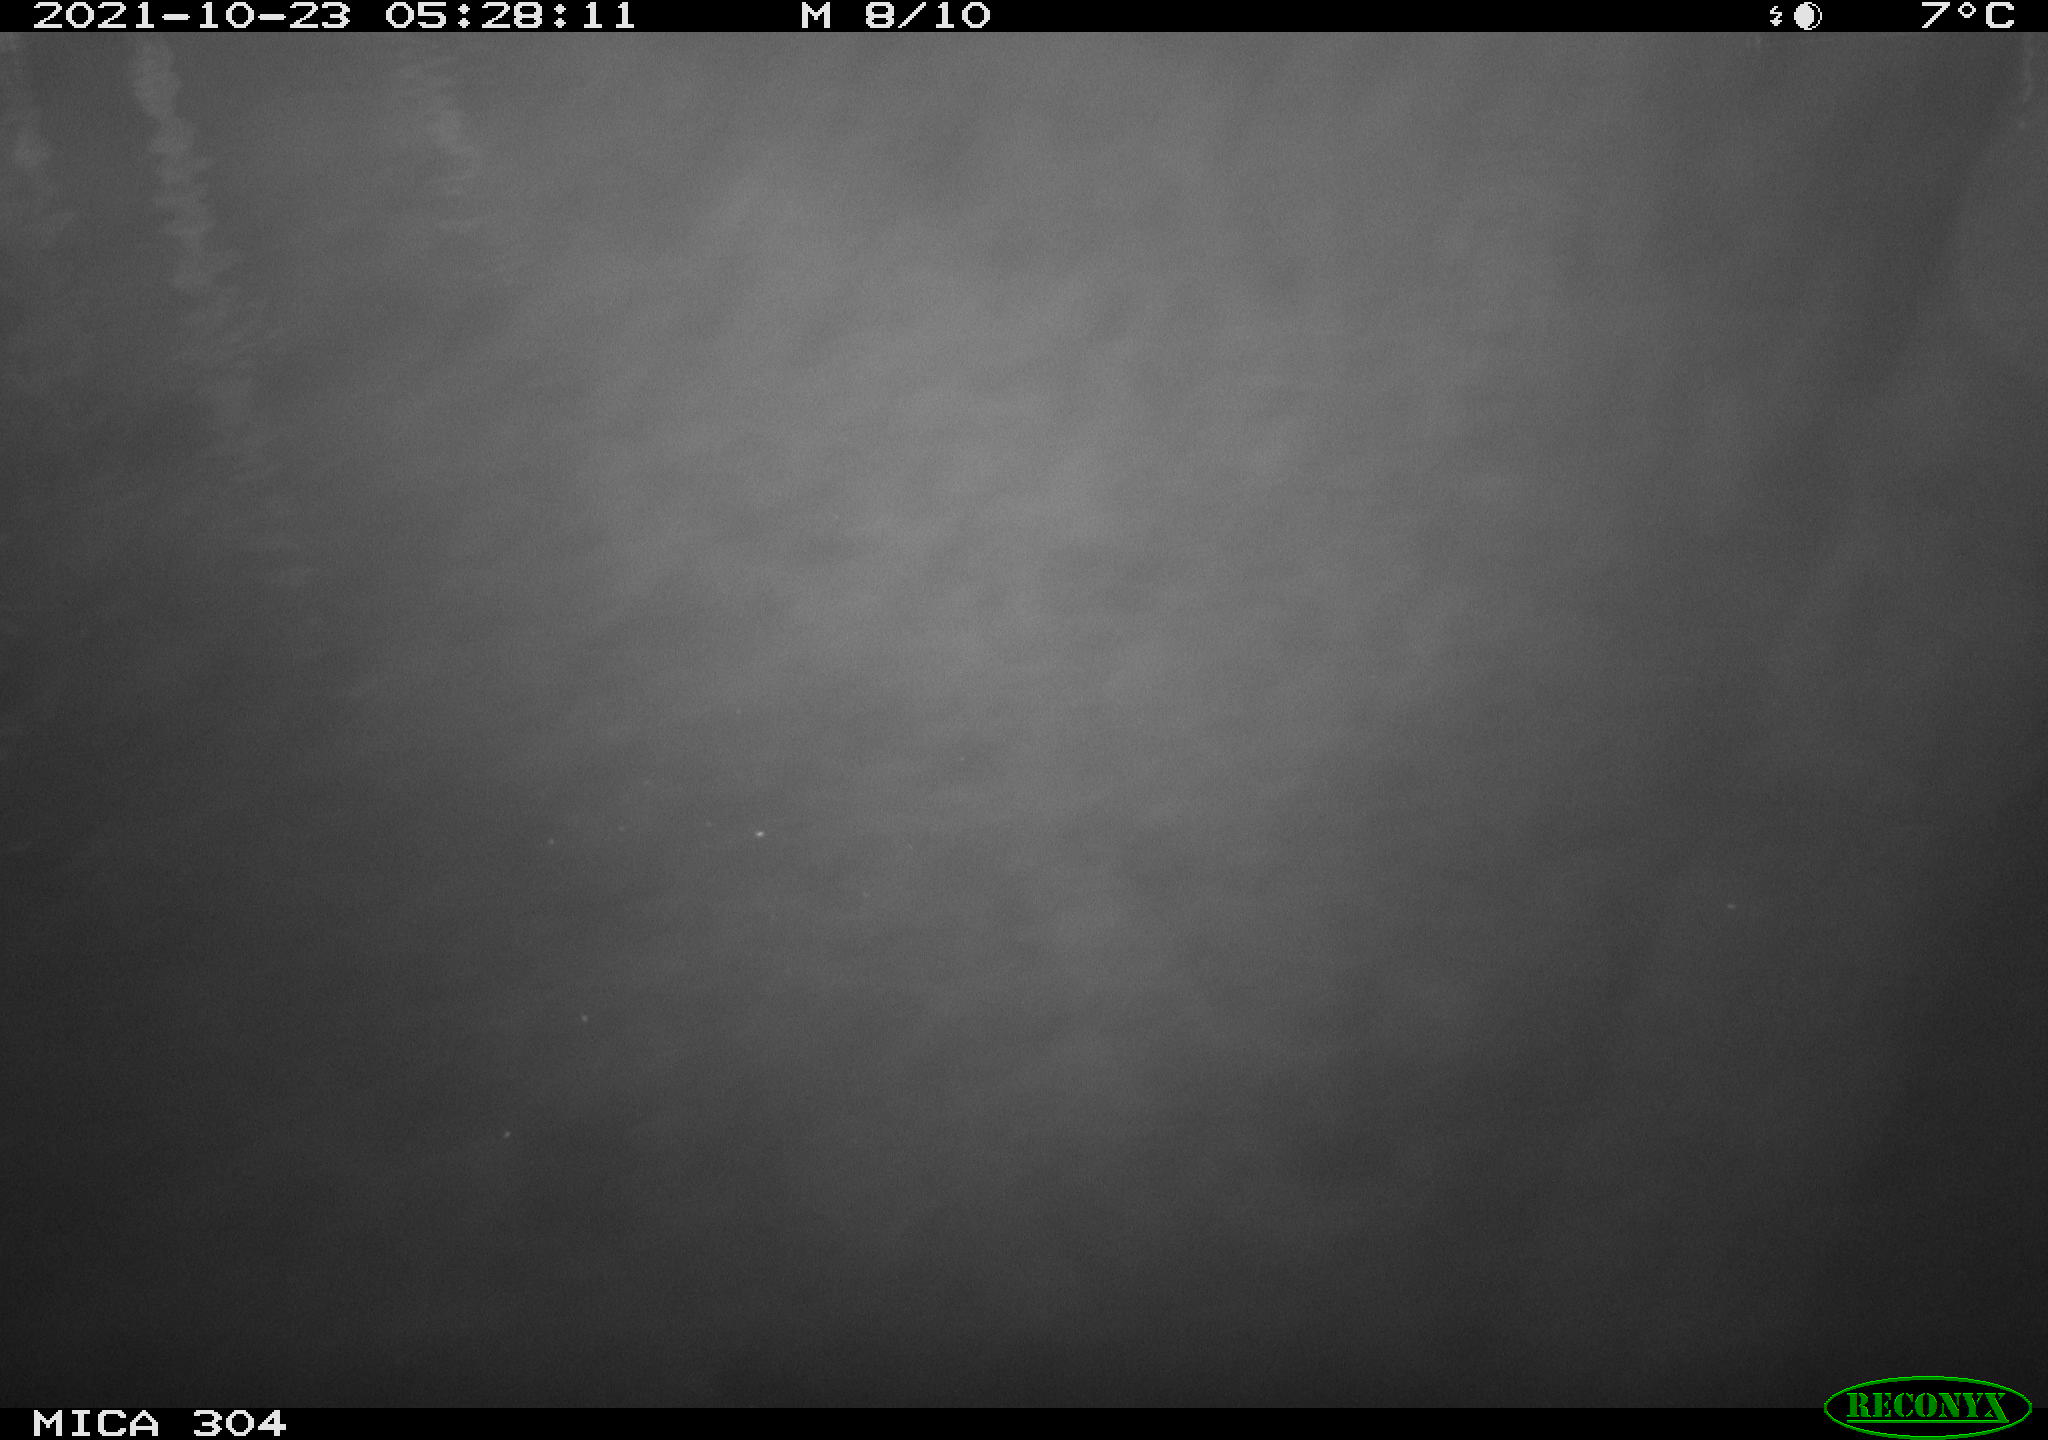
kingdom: Animalia
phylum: Chordata
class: Mammalia
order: Rodentia
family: Cricetidae
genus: Ondatra
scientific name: Ondatra zibethicus
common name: Muskrat
